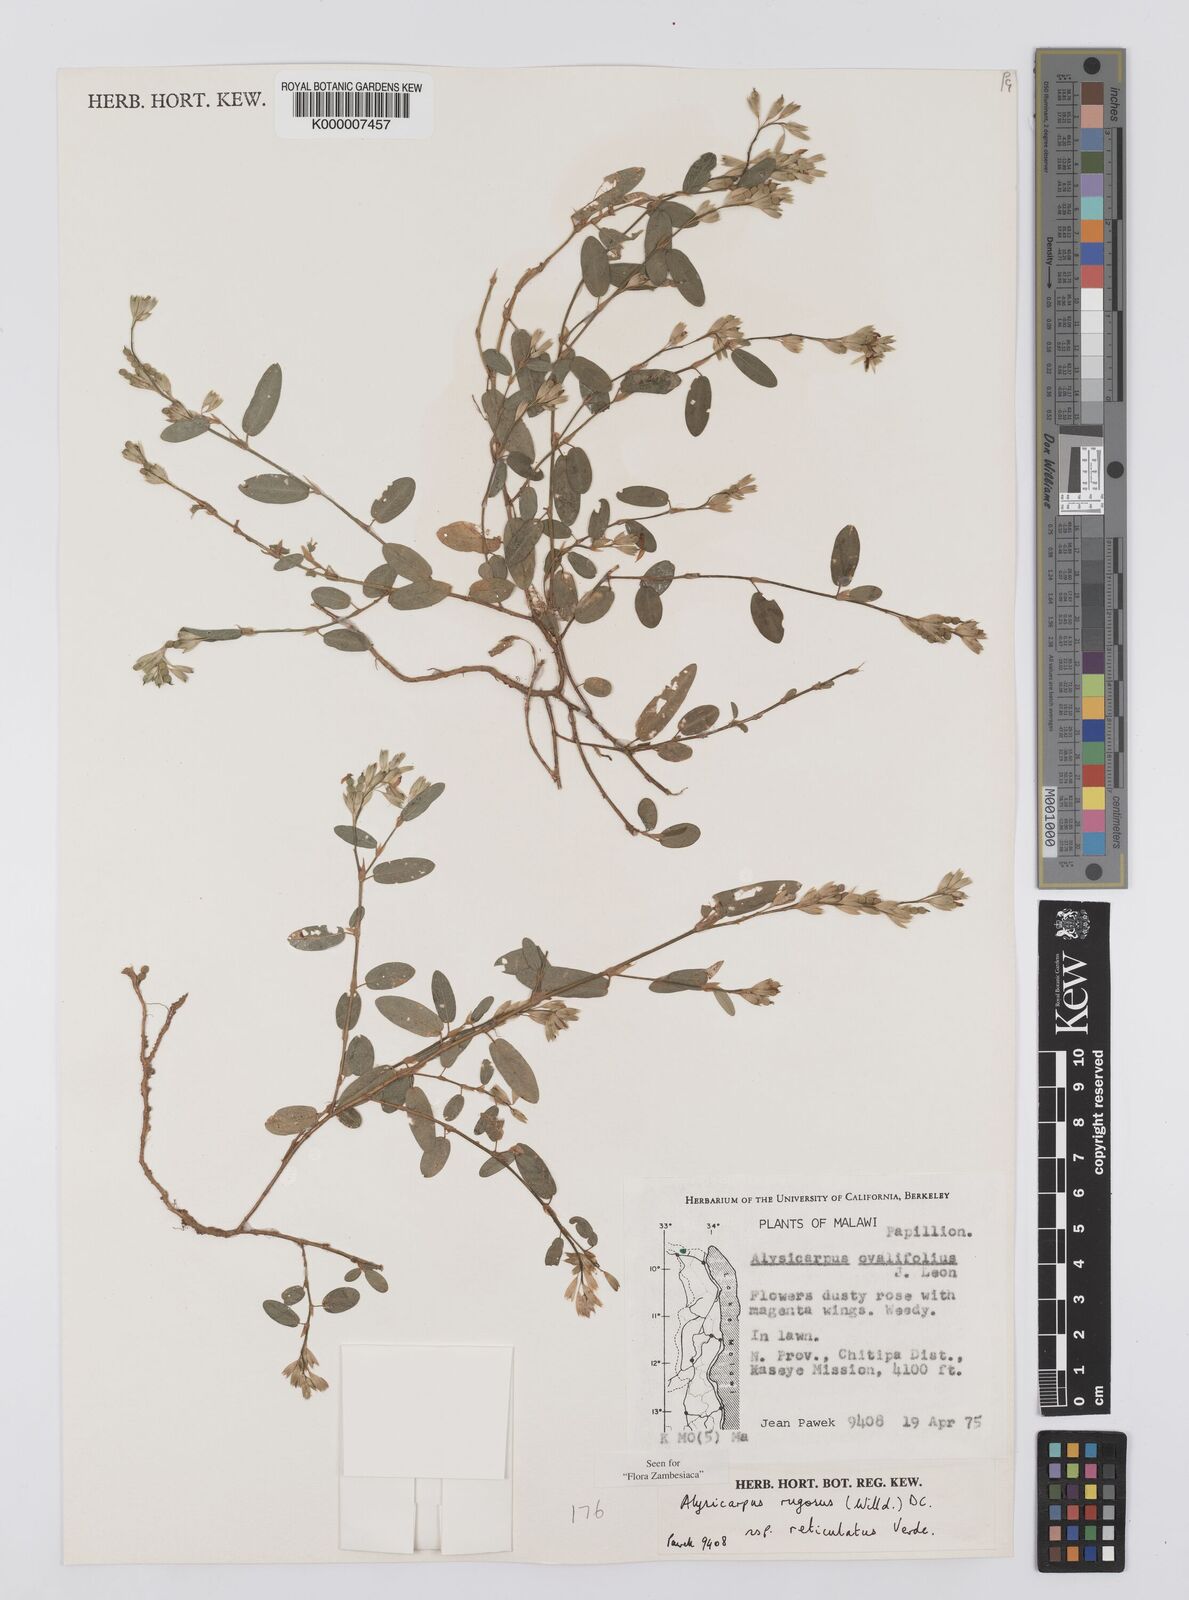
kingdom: Plantae
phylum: Tracheophyta
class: Magnoliopsida
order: Fabales
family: Fabaceae
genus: Alysicarpus
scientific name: Alysicarpus rugosus
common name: Red moneywort
